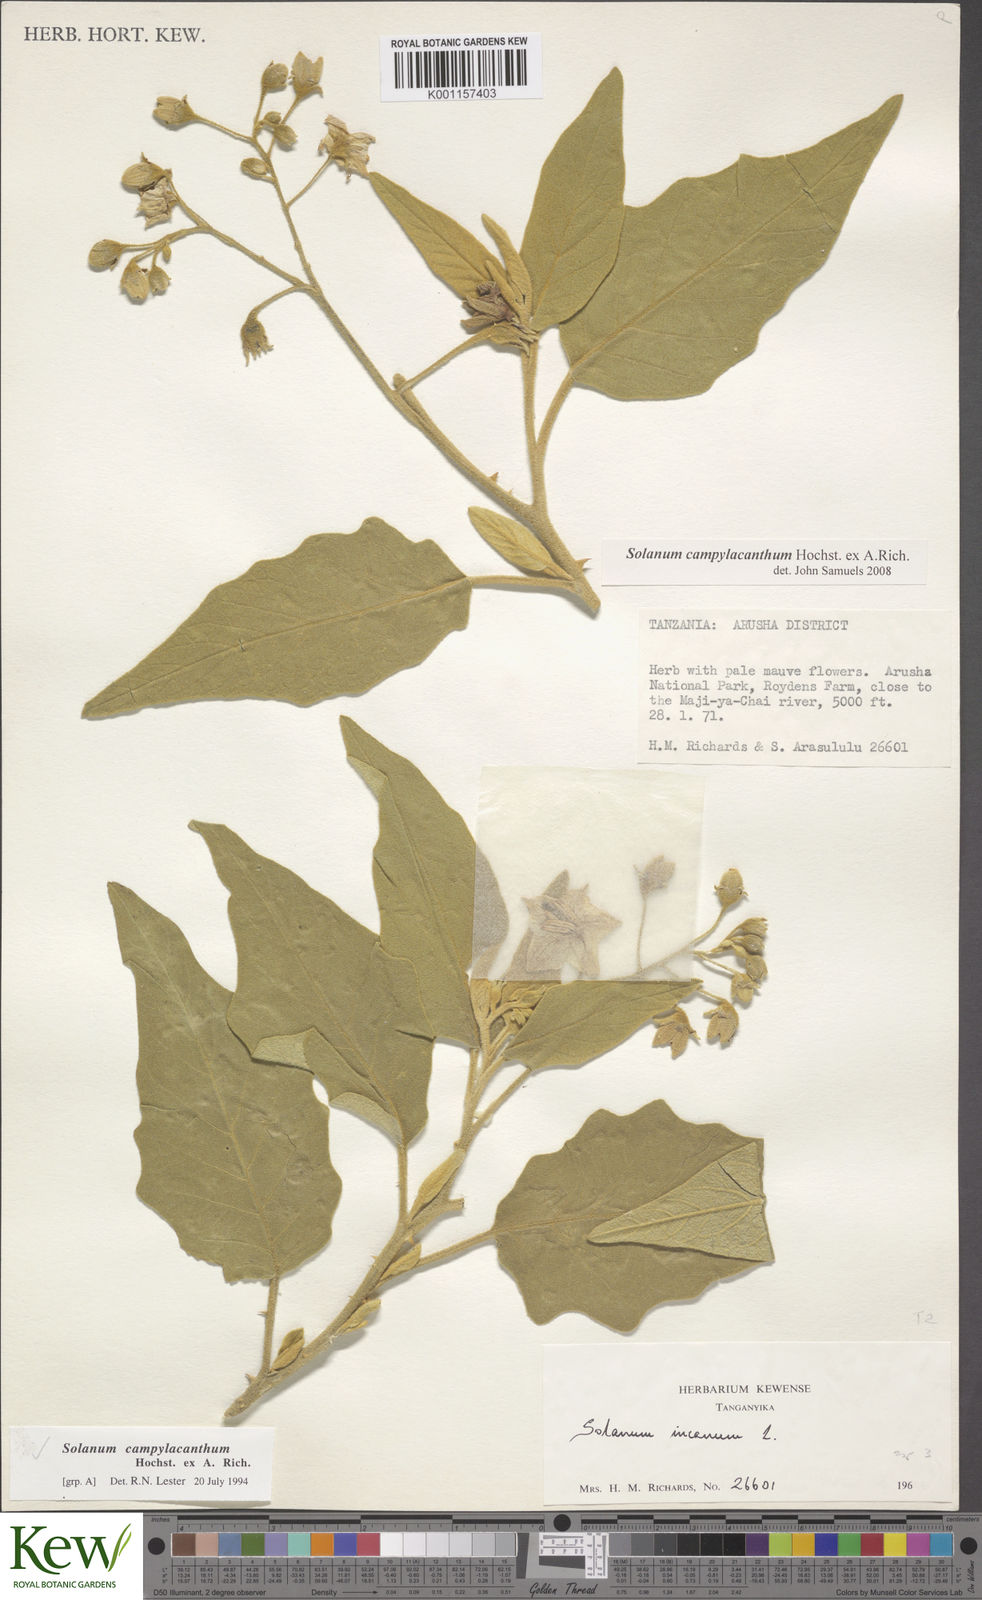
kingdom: Plantae
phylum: Tracheophyta
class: Magnoliopsida
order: Solanales
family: Solanaceae
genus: Solanum
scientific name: Solanum campylacanthum
